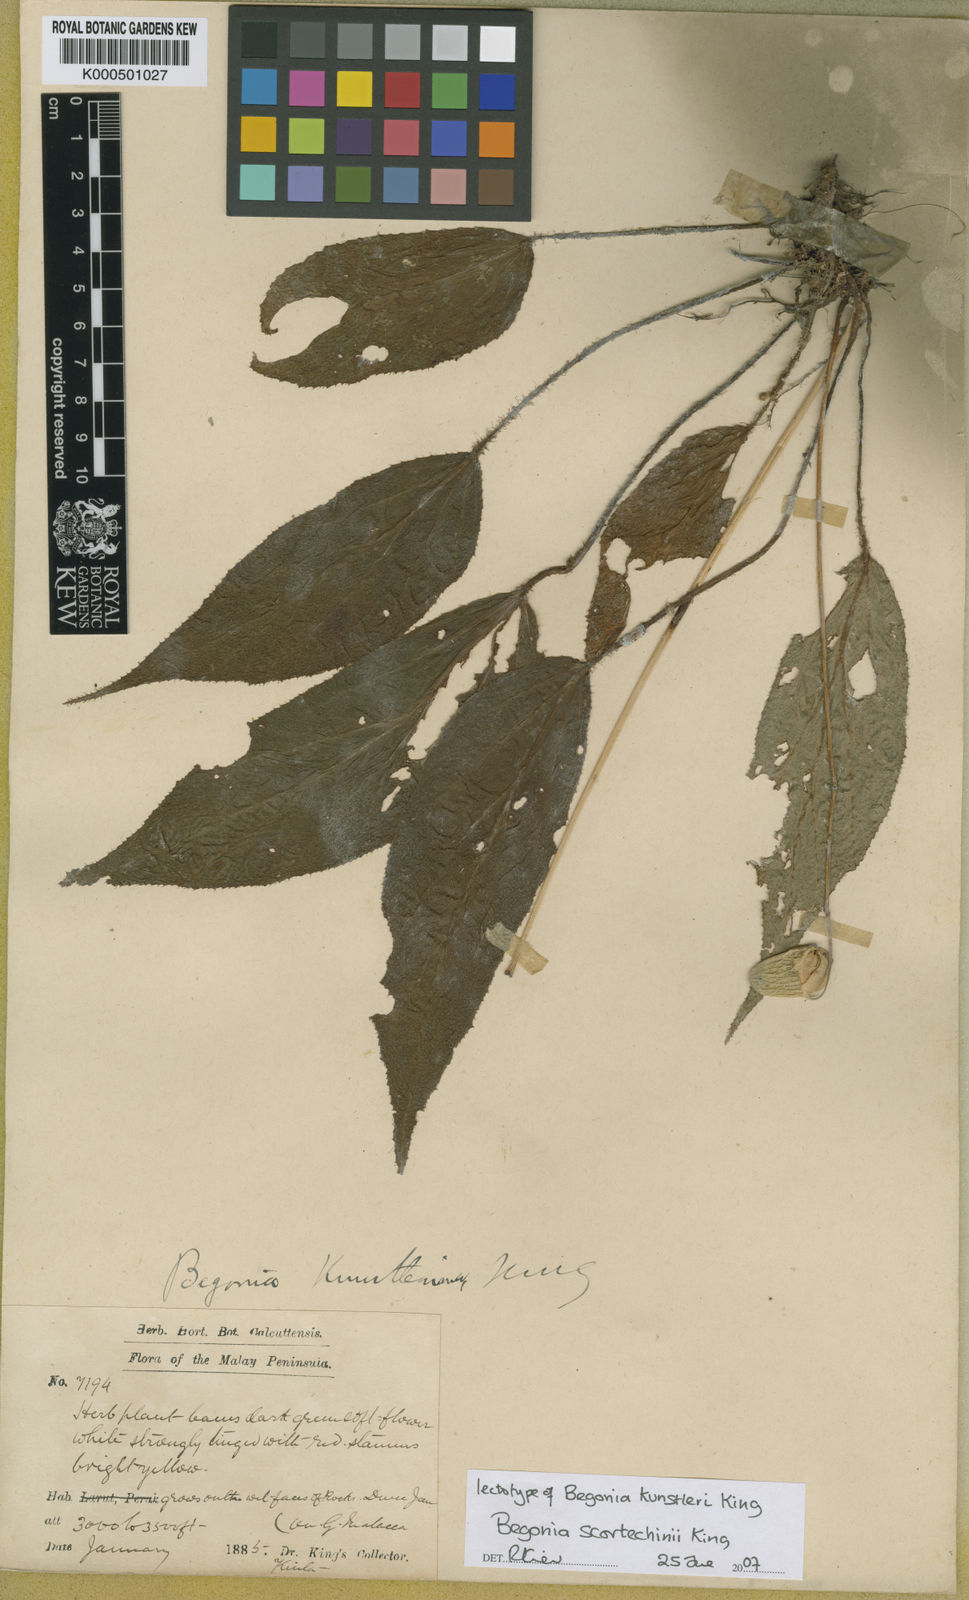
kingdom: Plantae
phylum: Tracheophyta
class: Magnoliopsida
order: Cucurbitales
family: Begoniaceae
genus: Begonia
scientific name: Begonia scortechinii
